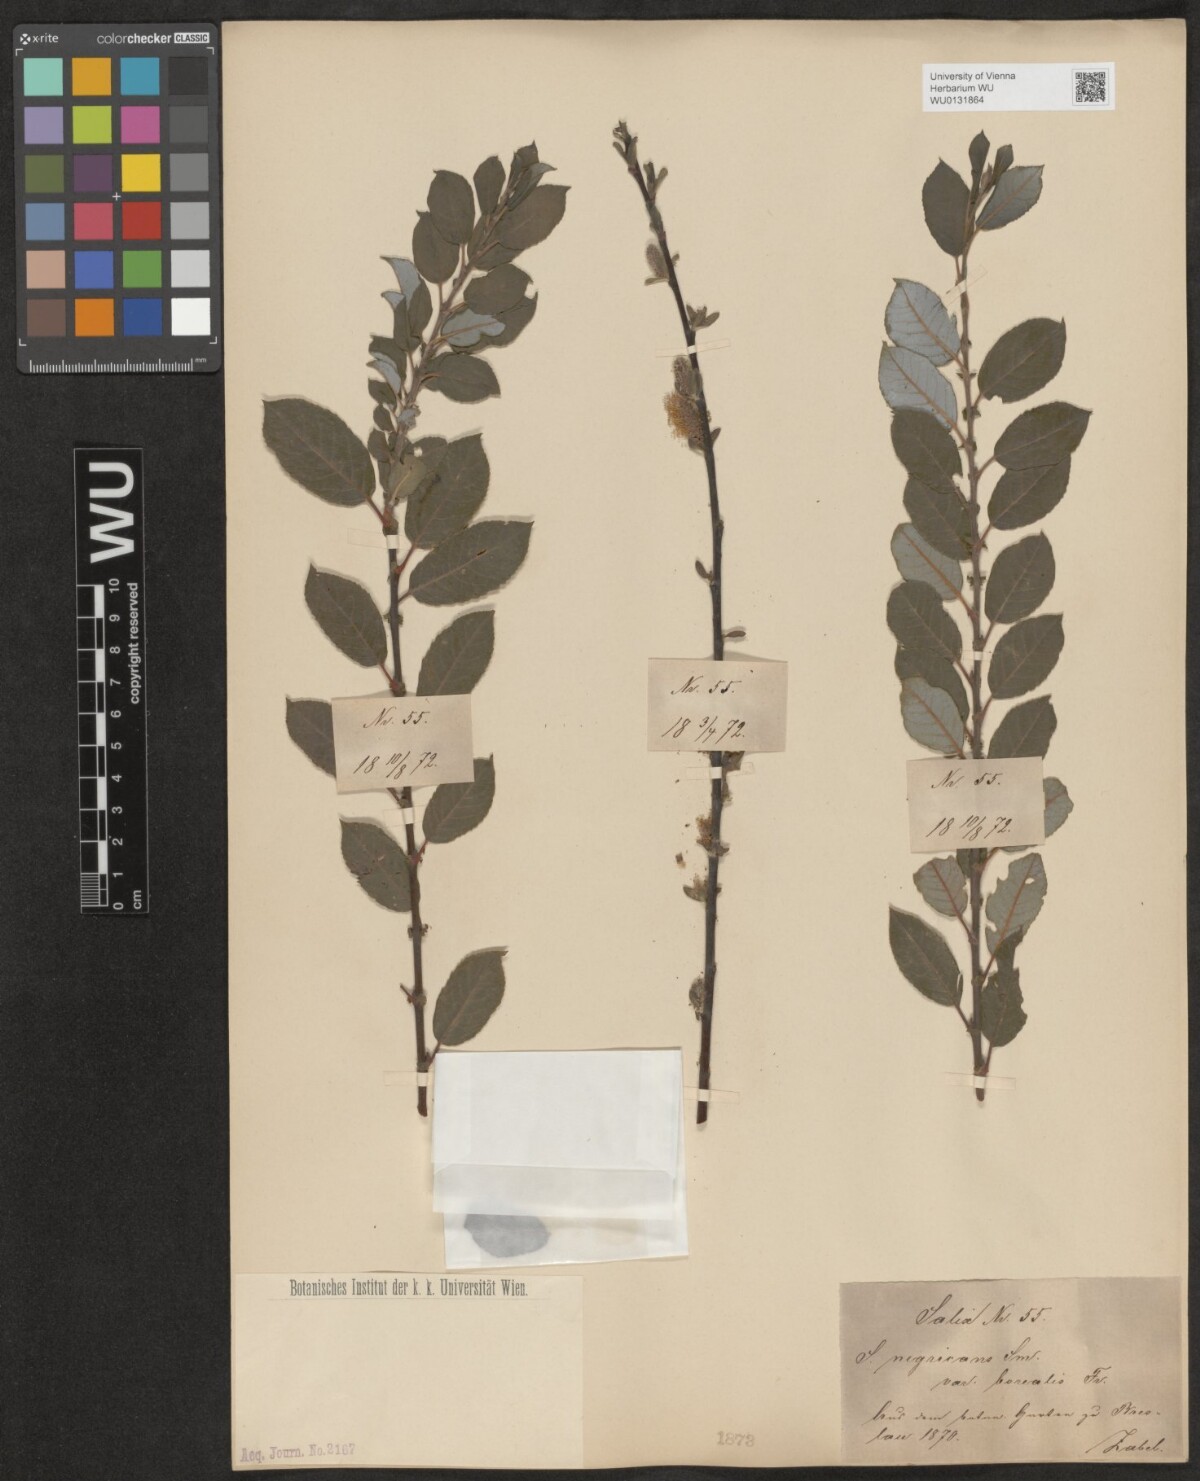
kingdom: Plantae
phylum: Tracheophyta
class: Magnoliopsida
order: Malpighiales
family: Salicaceae
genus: Salix
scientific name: Salix myrsinifolia
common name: Dark-leaved willow
